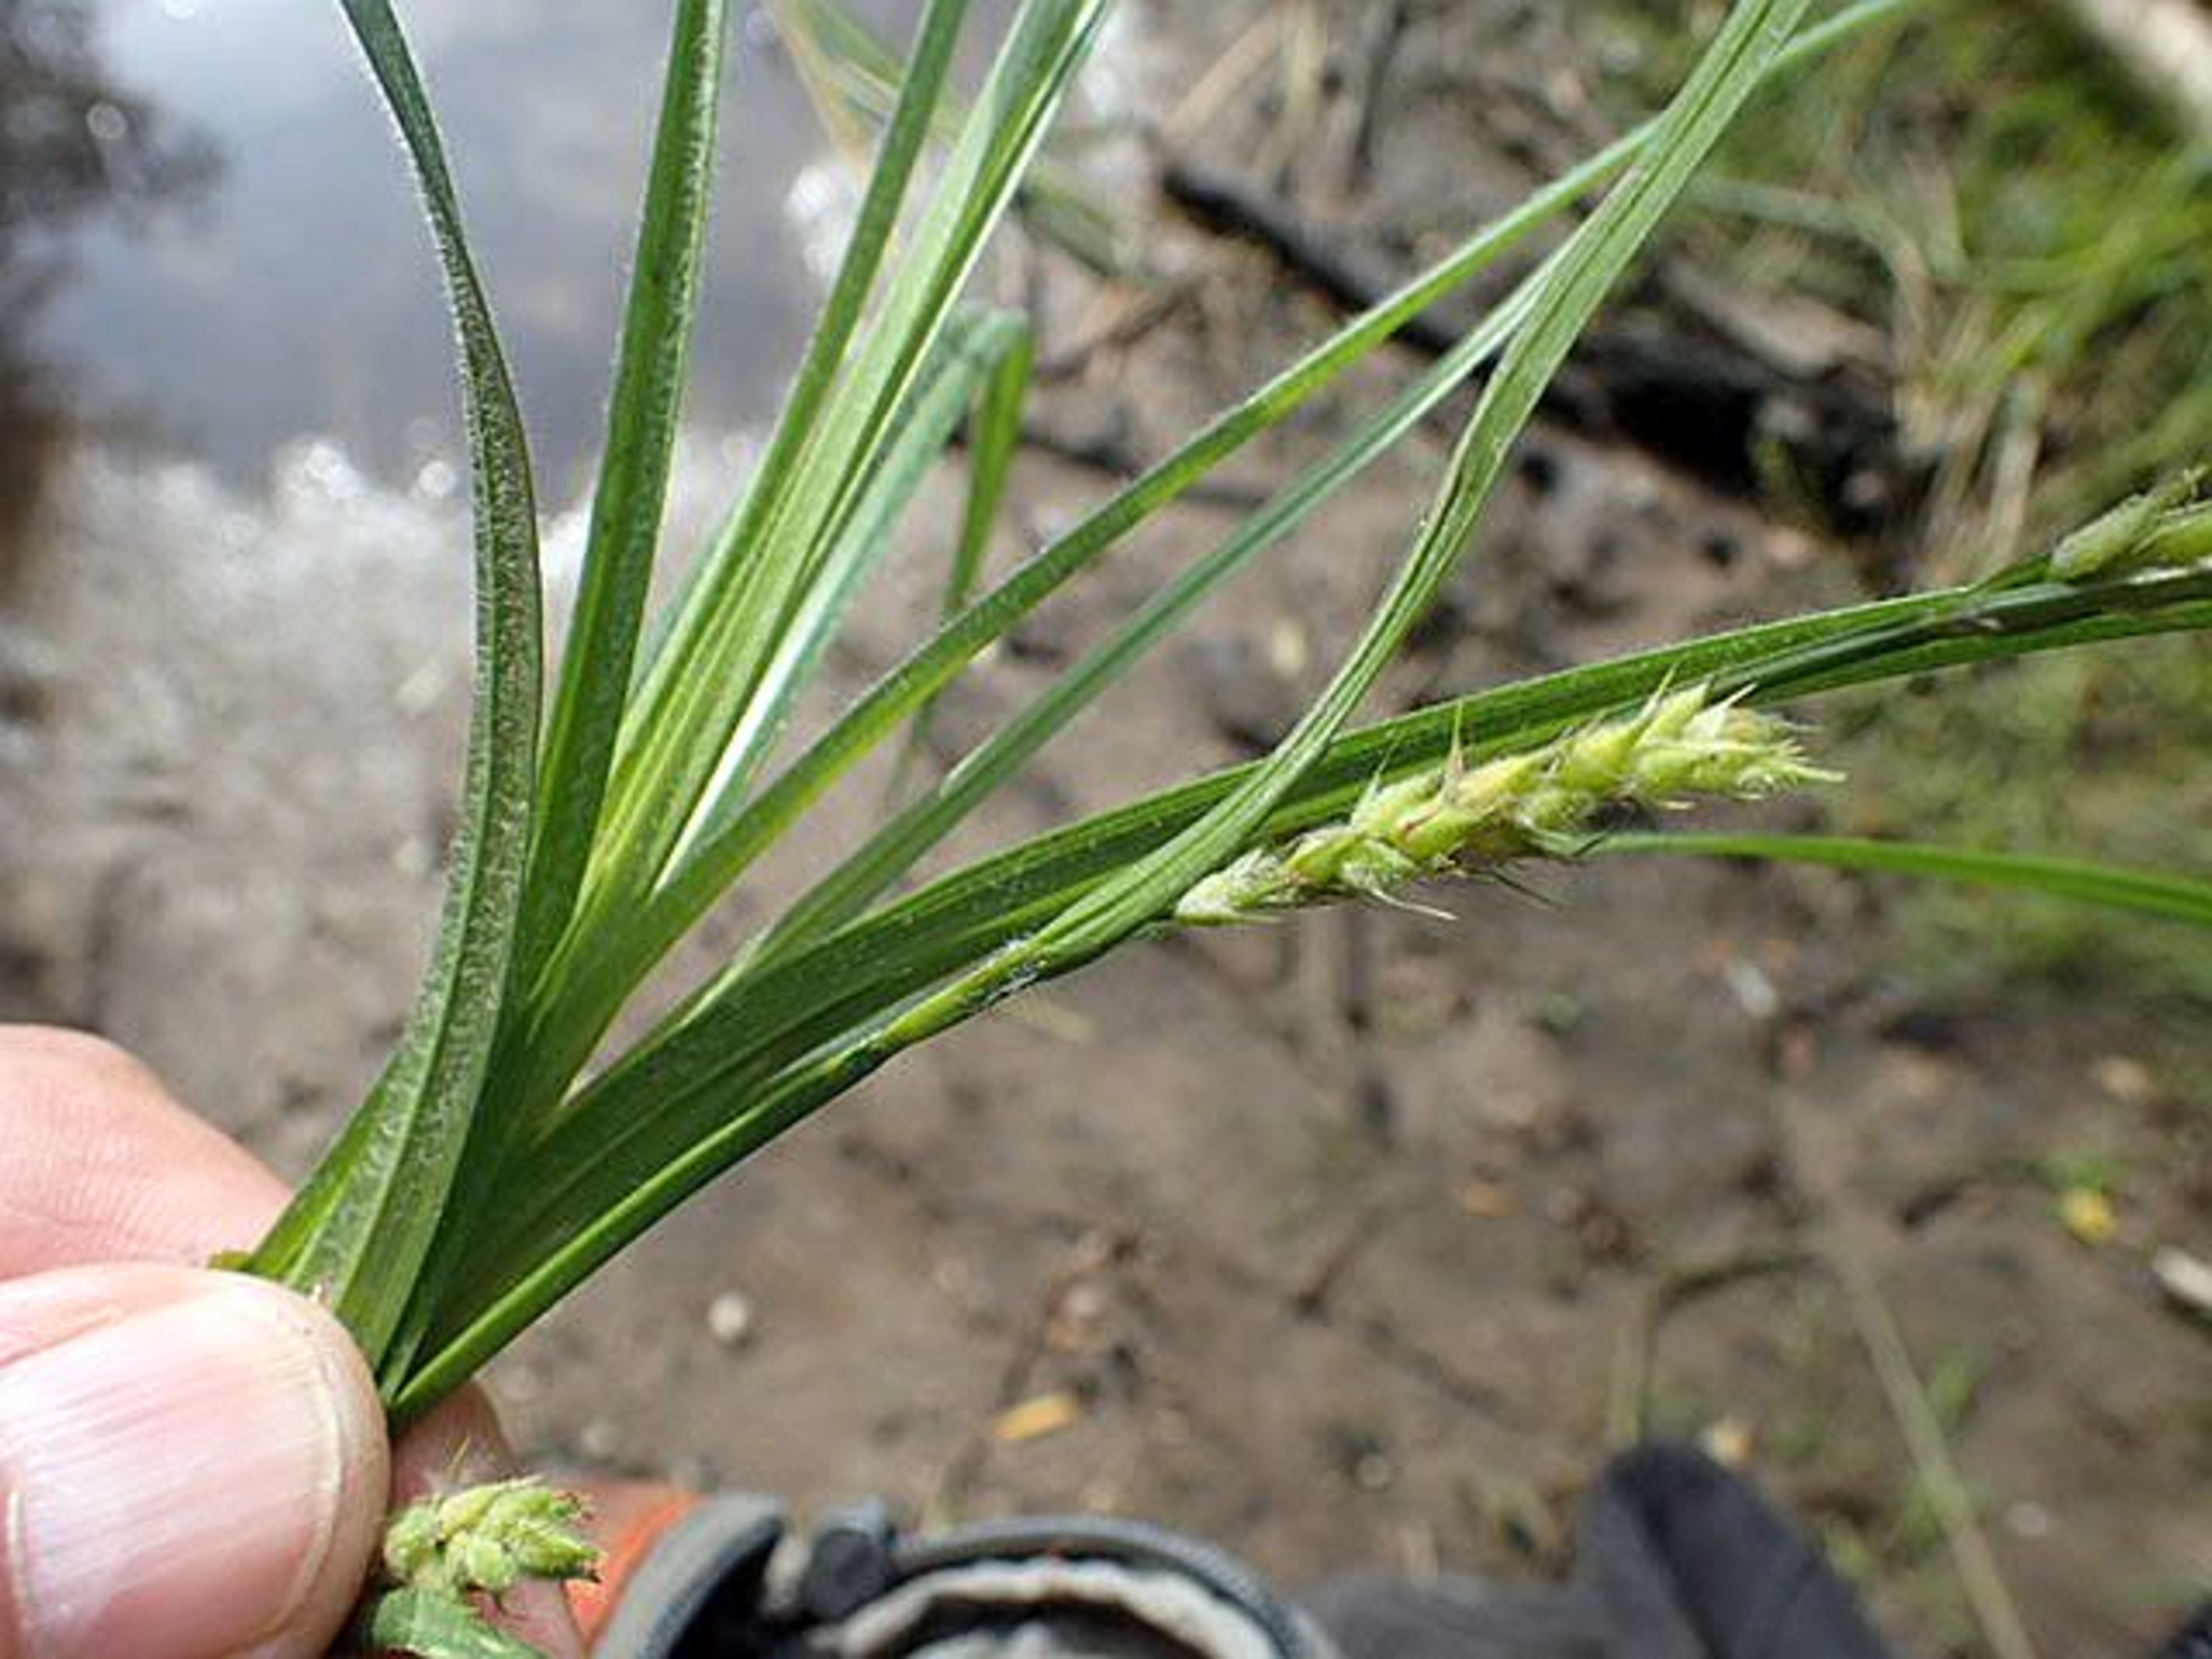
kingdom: Plantae
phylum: Tracheophyta
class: Liliopsida
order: Poales
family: Cyperaceae
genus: Carex
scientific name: Carex hirta
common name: Håret star
